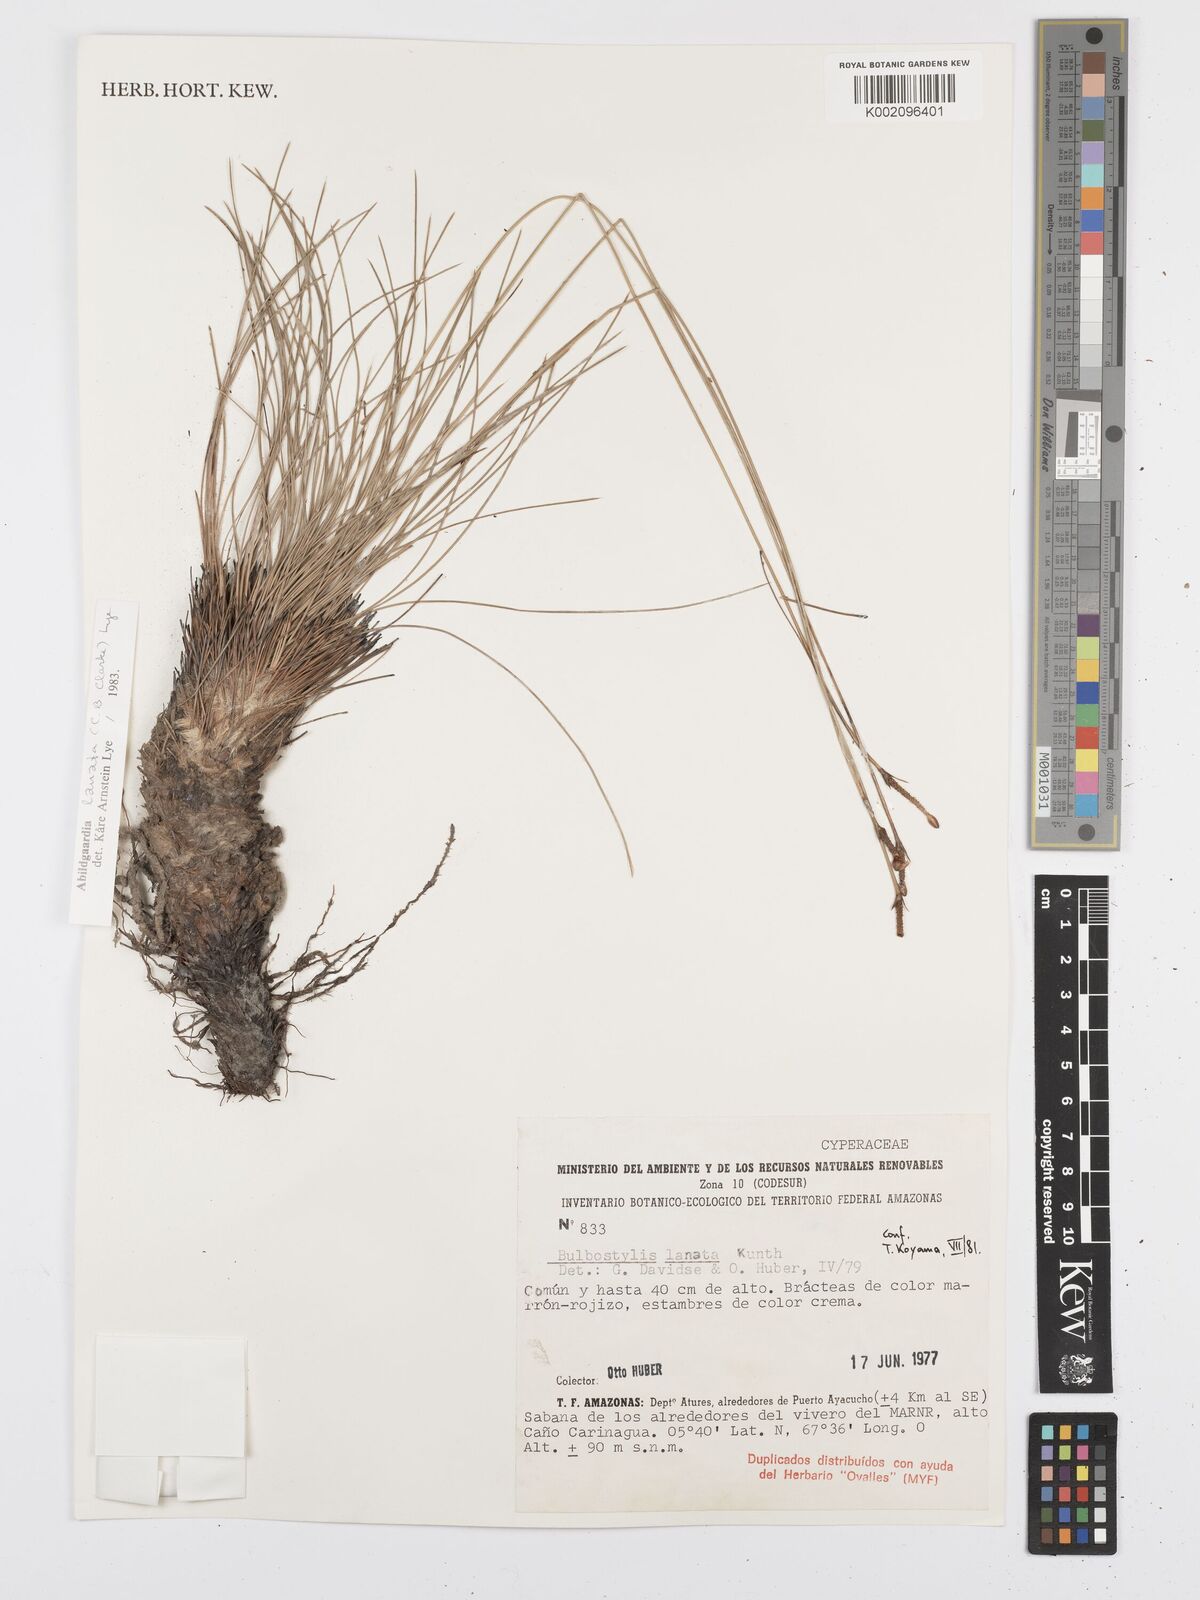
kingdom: Plantae
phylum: Tracheophyta
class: Liliopsida
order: Poales
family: Cyperaceae
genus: Bulbostylis
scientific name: Bulbostylis lanata
